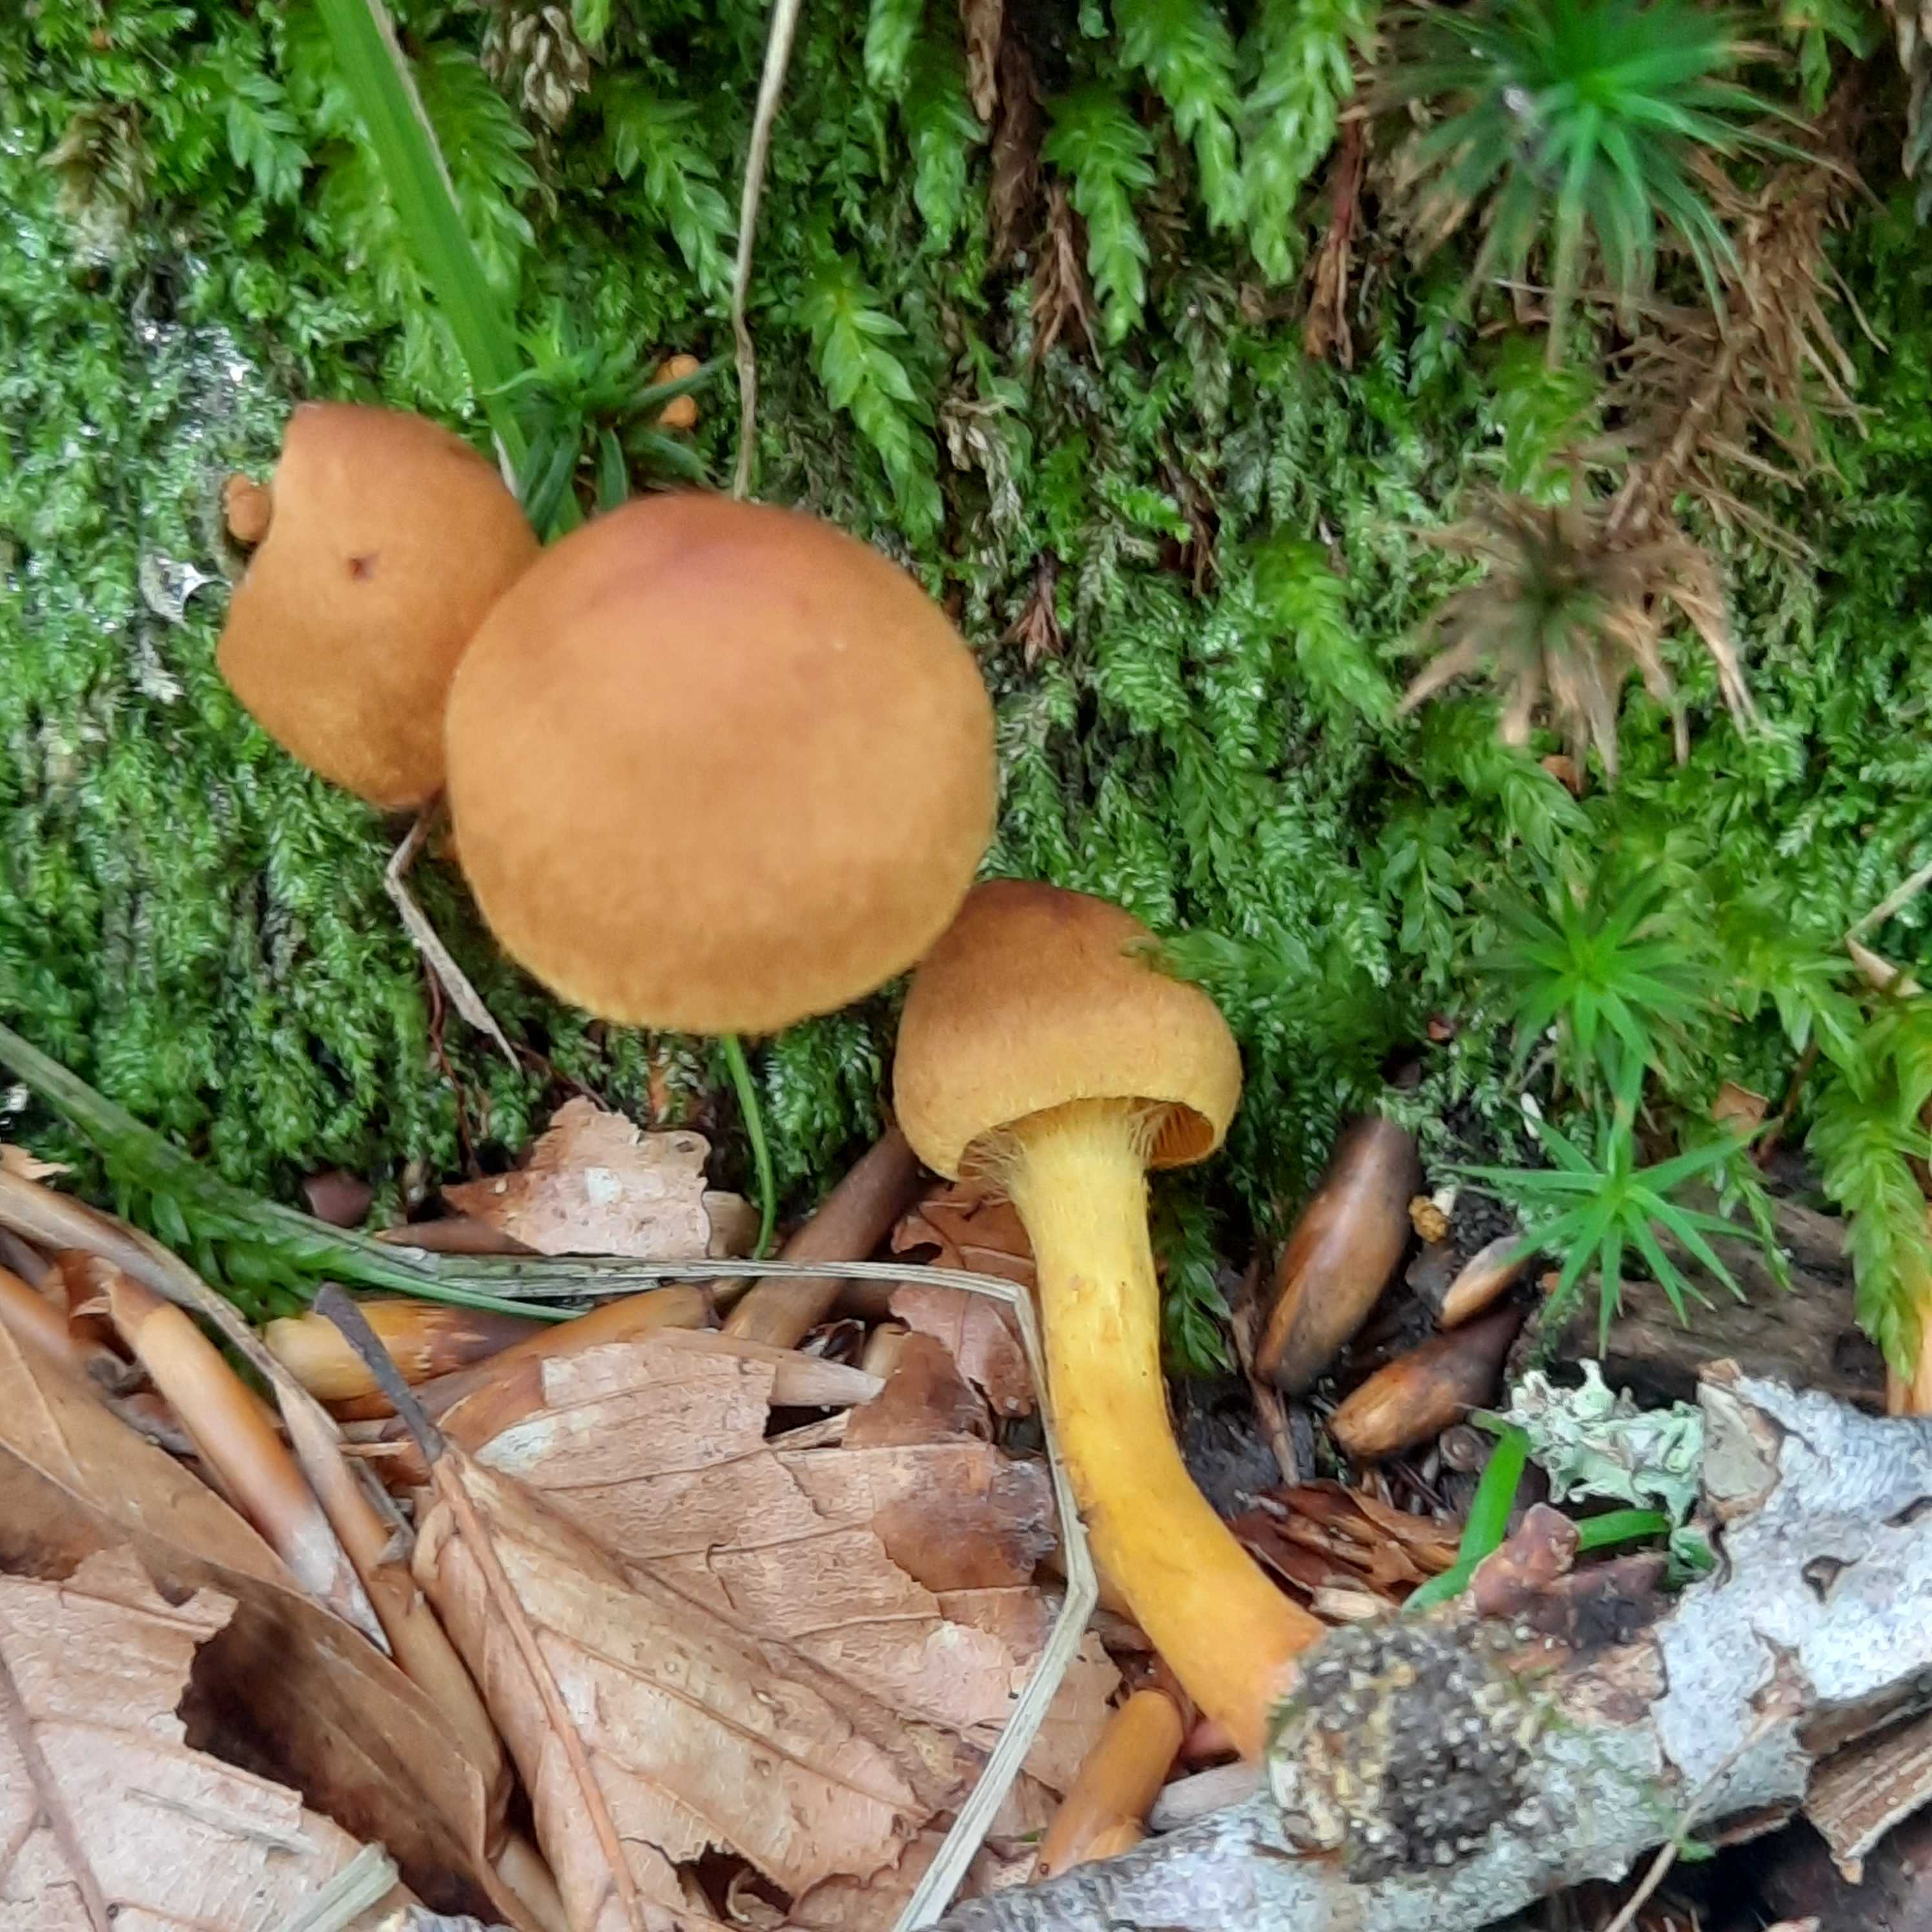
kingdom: Fungi
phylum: Basidiomycota
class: Agaricomycetes
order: Agaricales
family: Cortinariaceae
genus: Cortinarius
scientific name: Cortinarius
